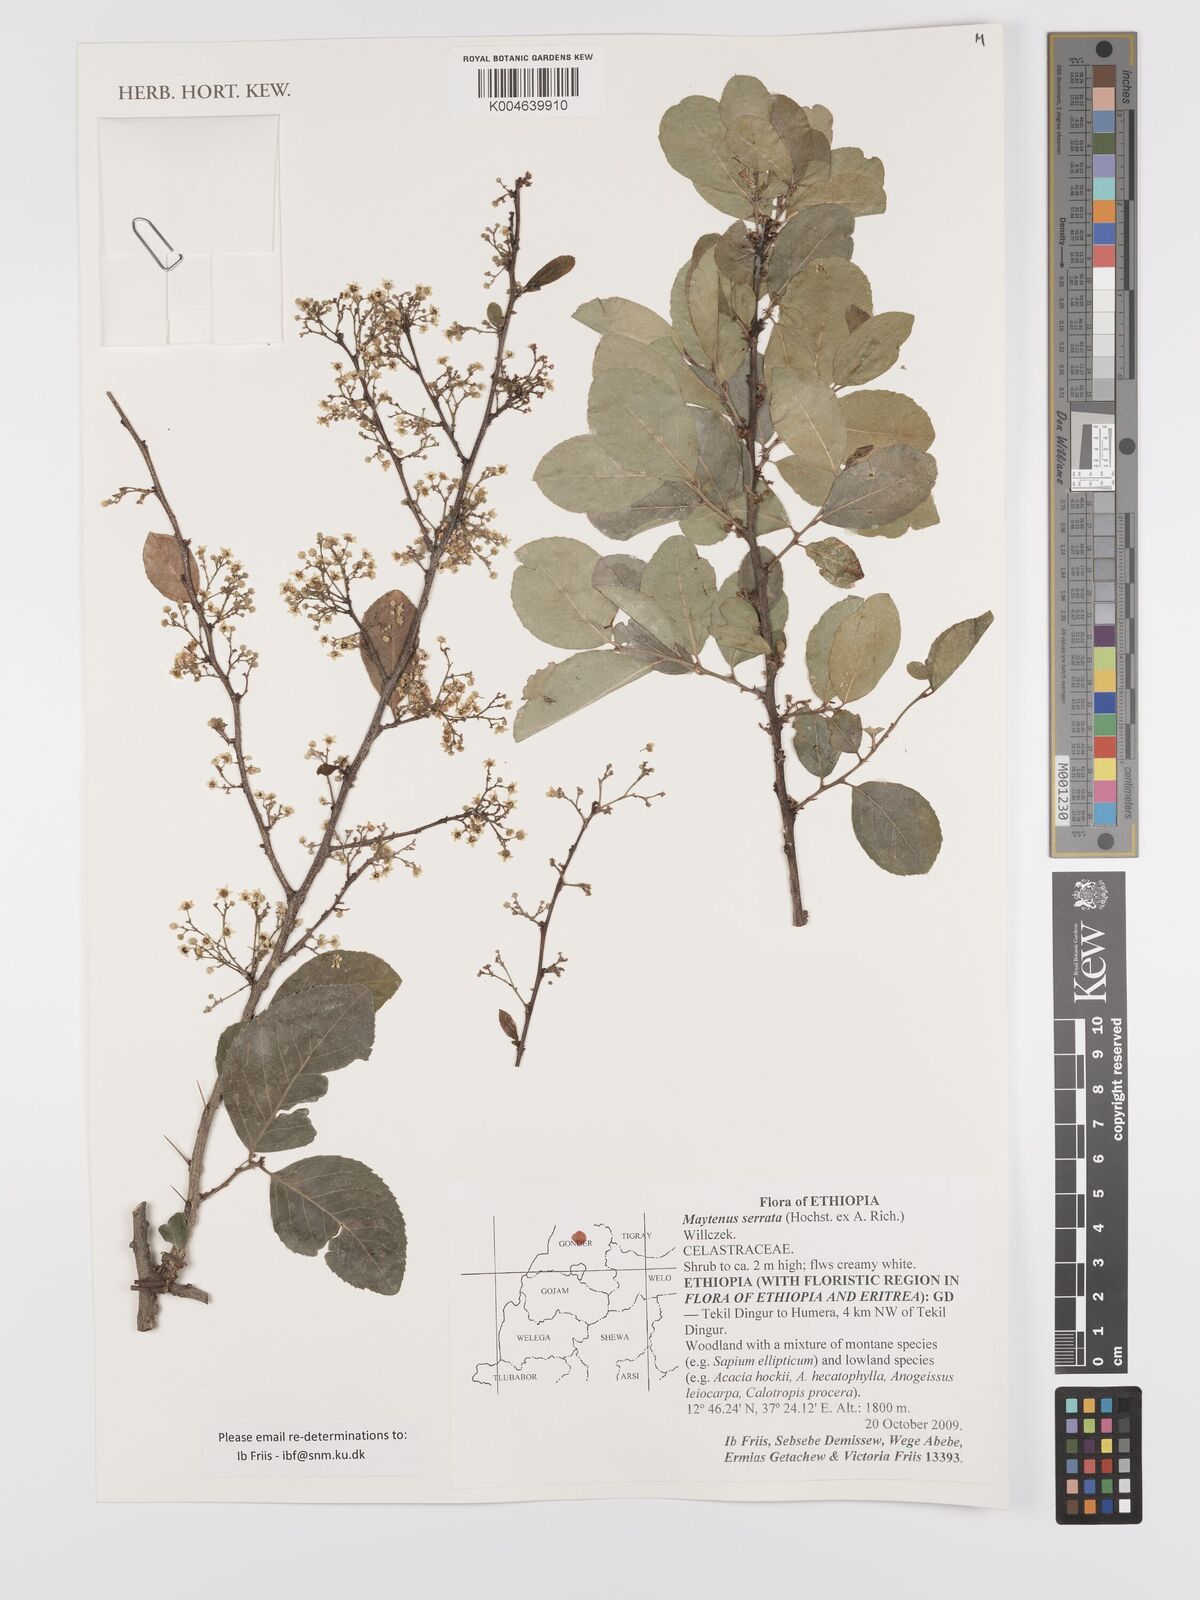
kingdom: Plantae
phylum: Tracheophyta
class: Magnoliopsida
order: Celastrales
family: Celastraceae
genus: Gymnosporia
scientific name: Gymnosporia serrata
